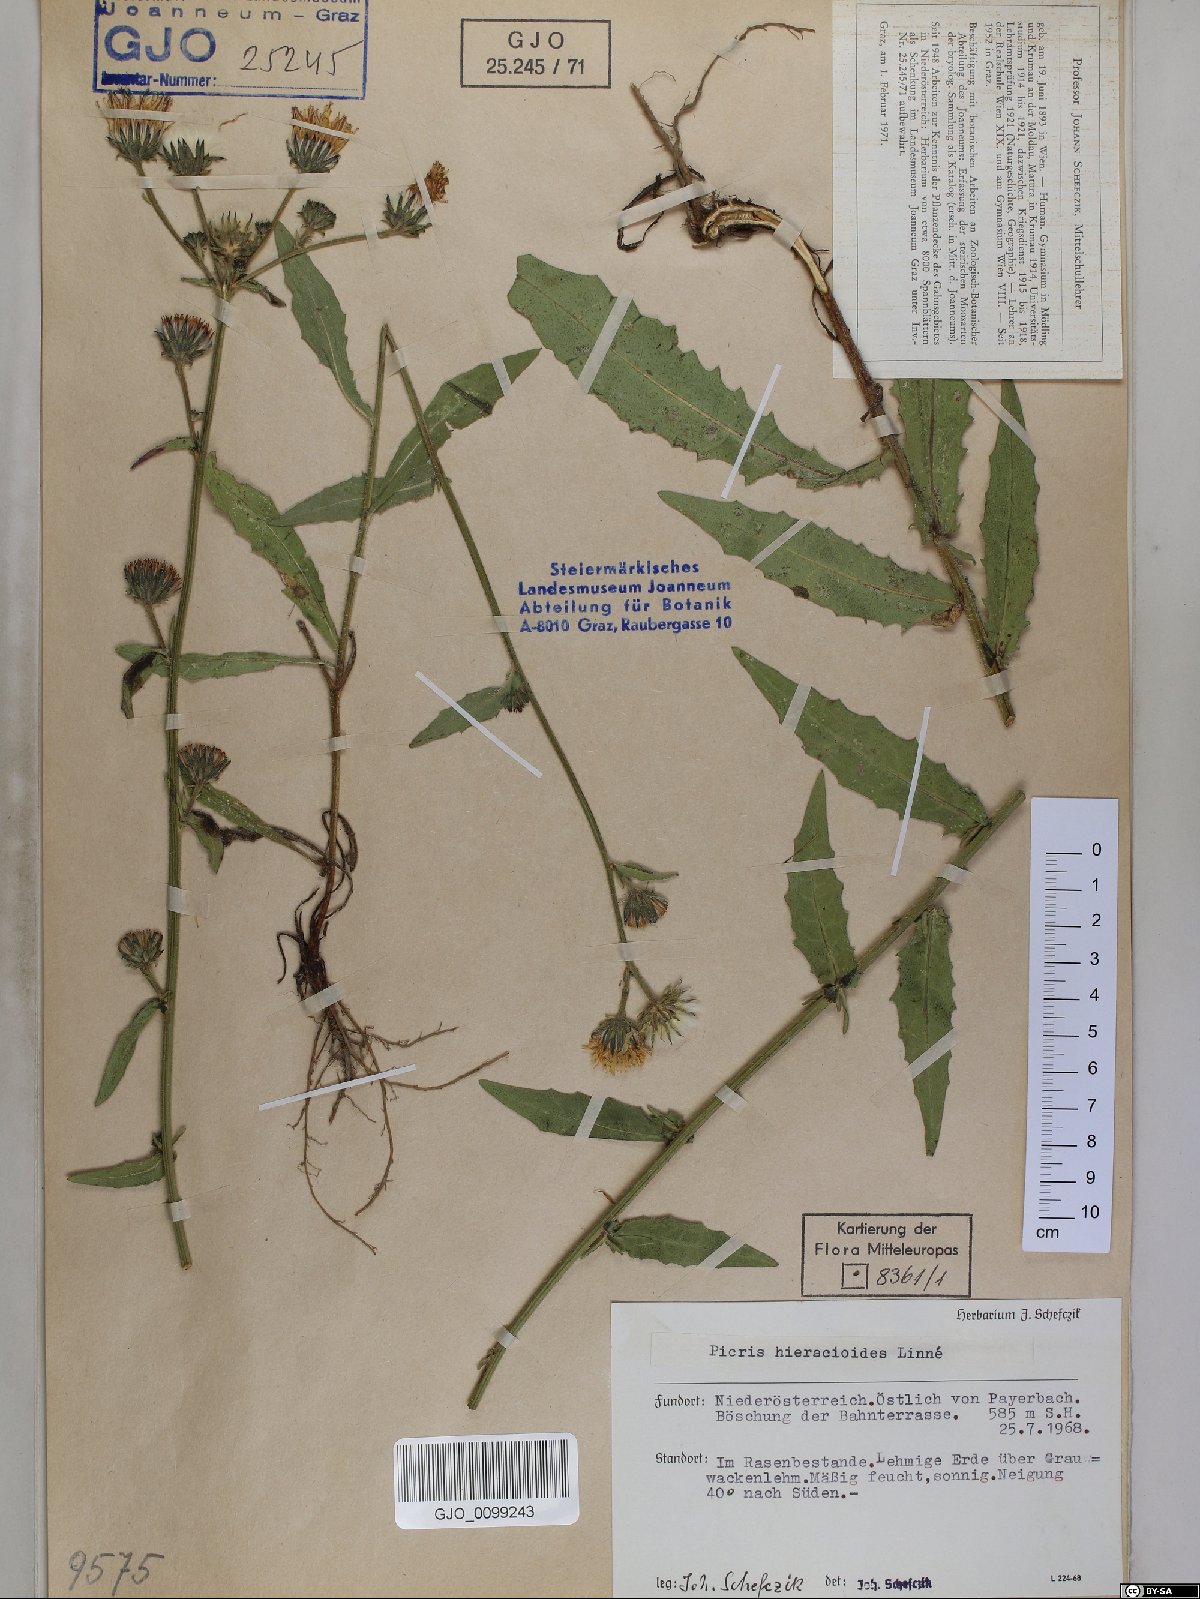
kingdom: Plantae
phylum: Tracheophyta
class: Magnoliopsida
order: Asterales
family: Asteraceae
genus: Picris
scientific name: Picris hieracioides
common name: Hawkweed oxtongue
